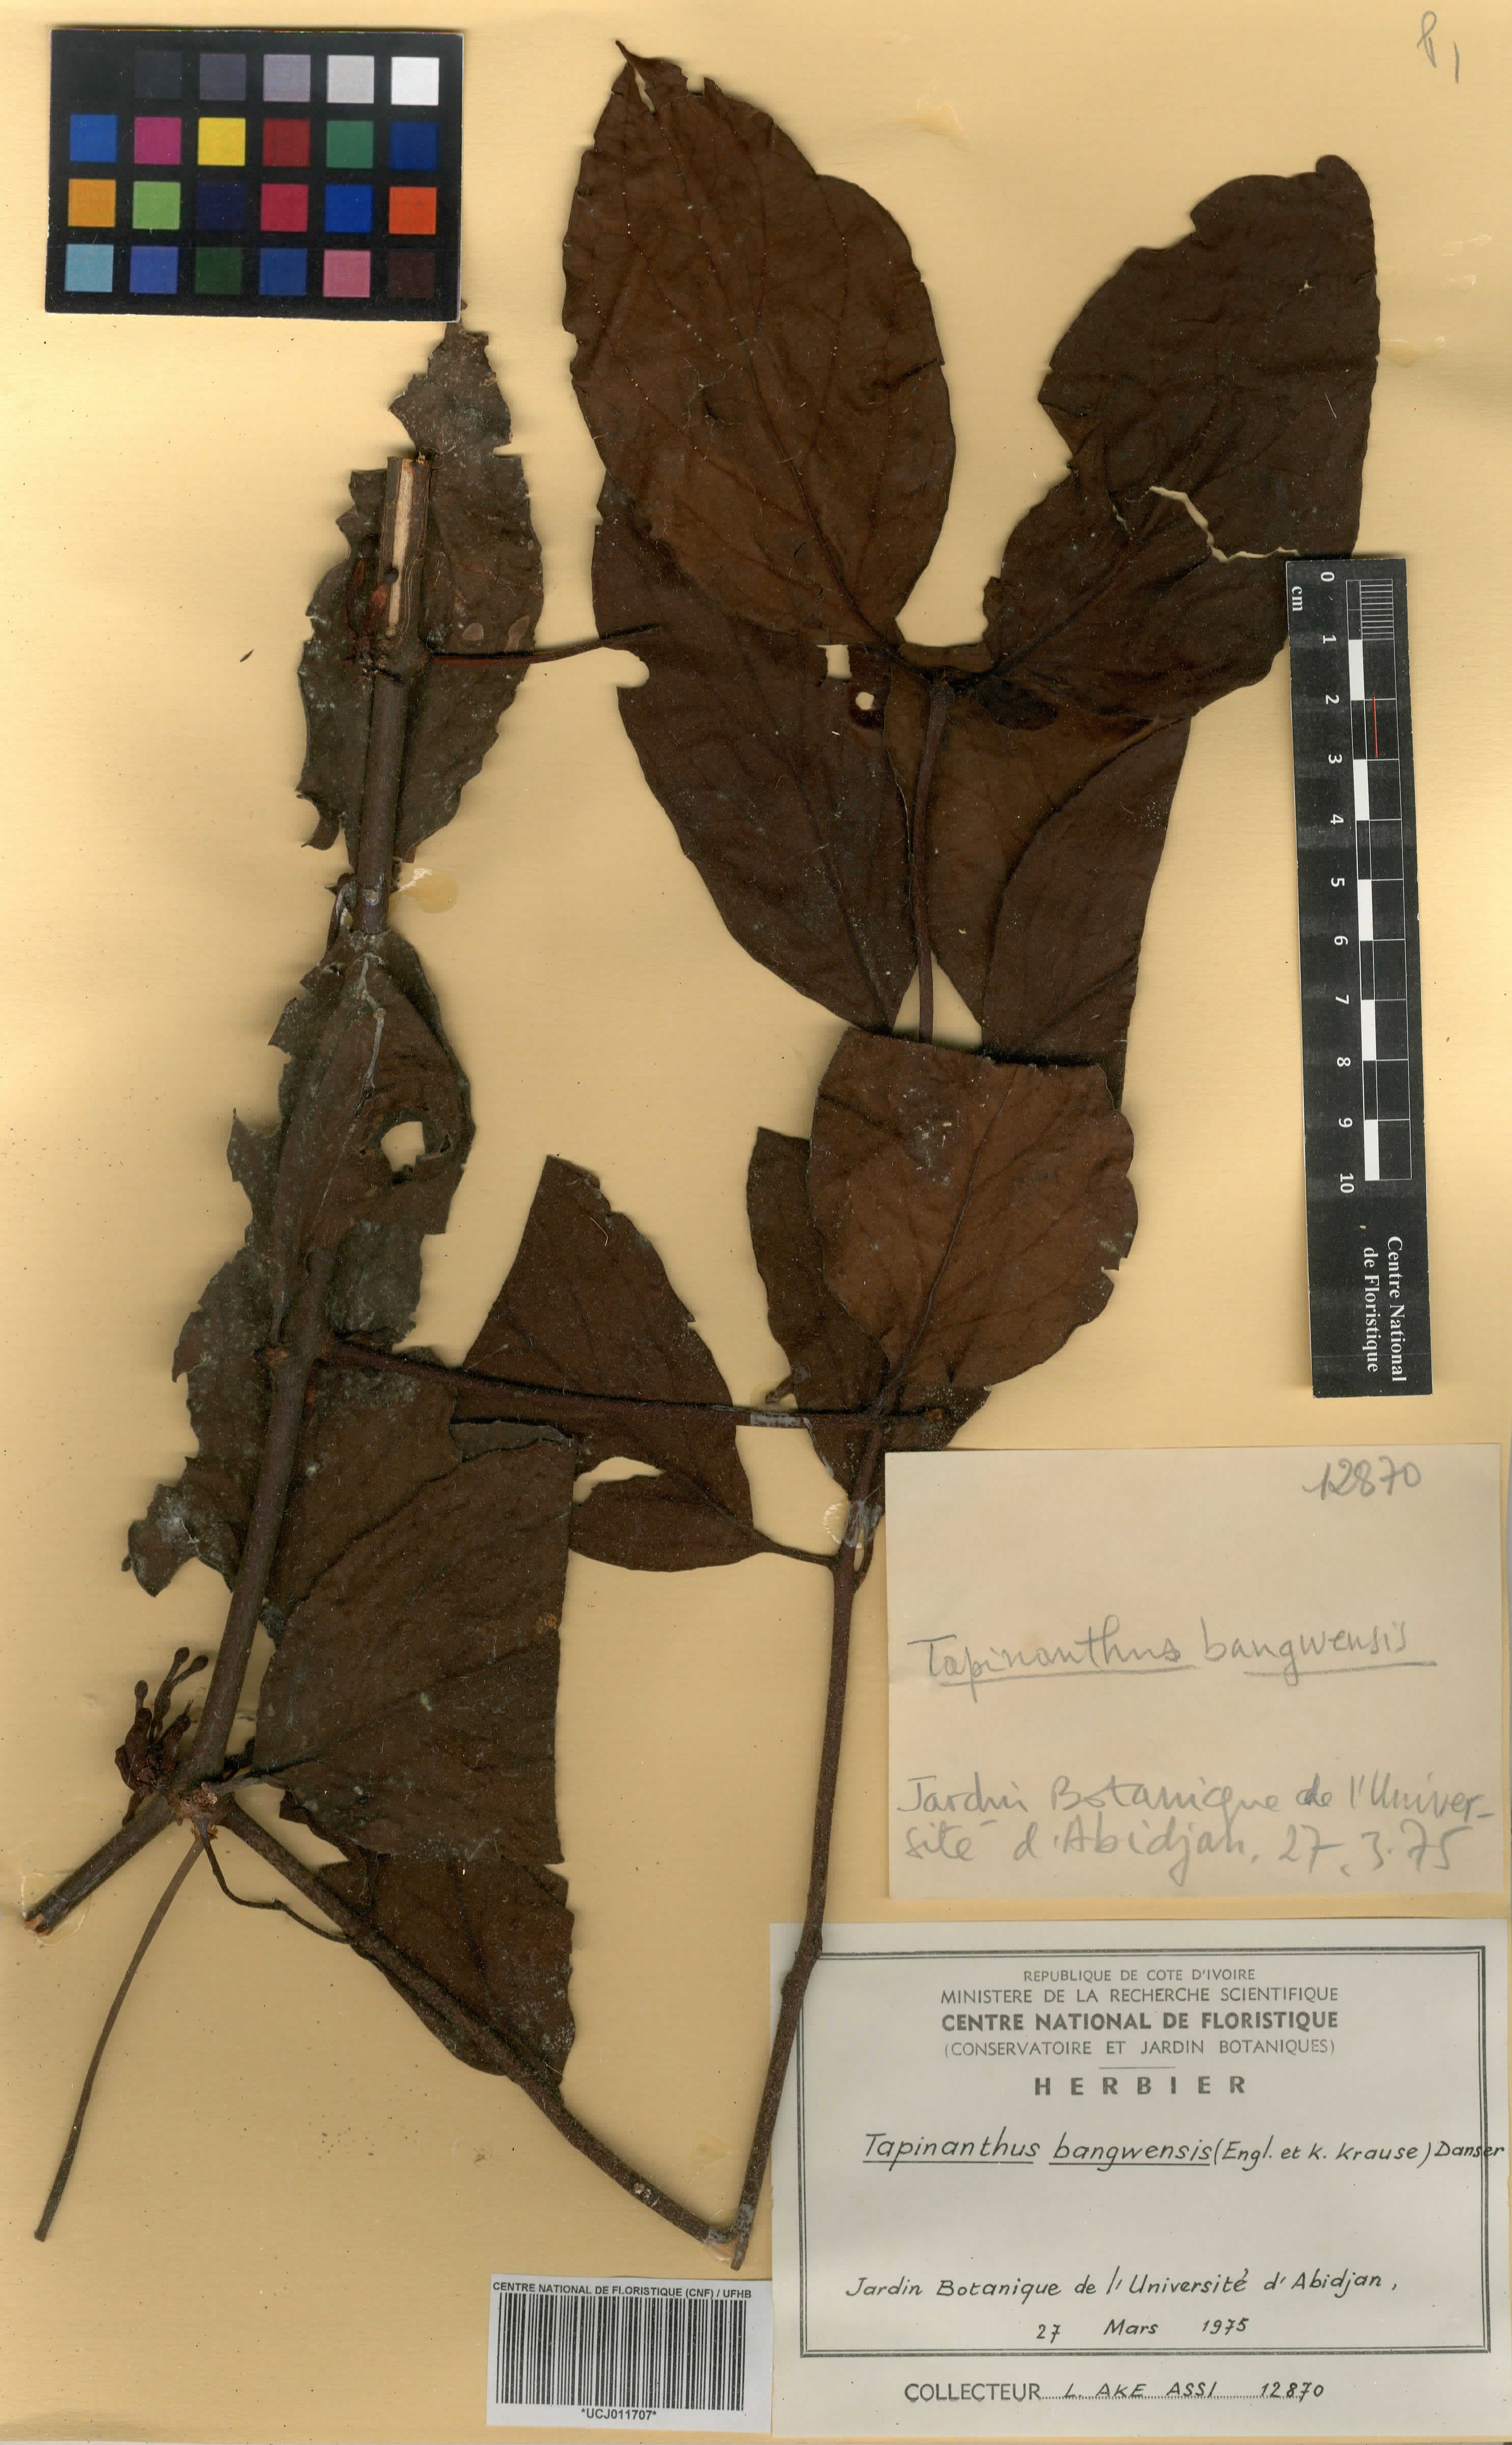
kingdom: Plantae
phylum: Tracheophyta
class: Magnoliopsida
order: Santalales
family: Loranthaceae
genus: Tapinanthus
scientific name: Tapinanthus bangwensis
